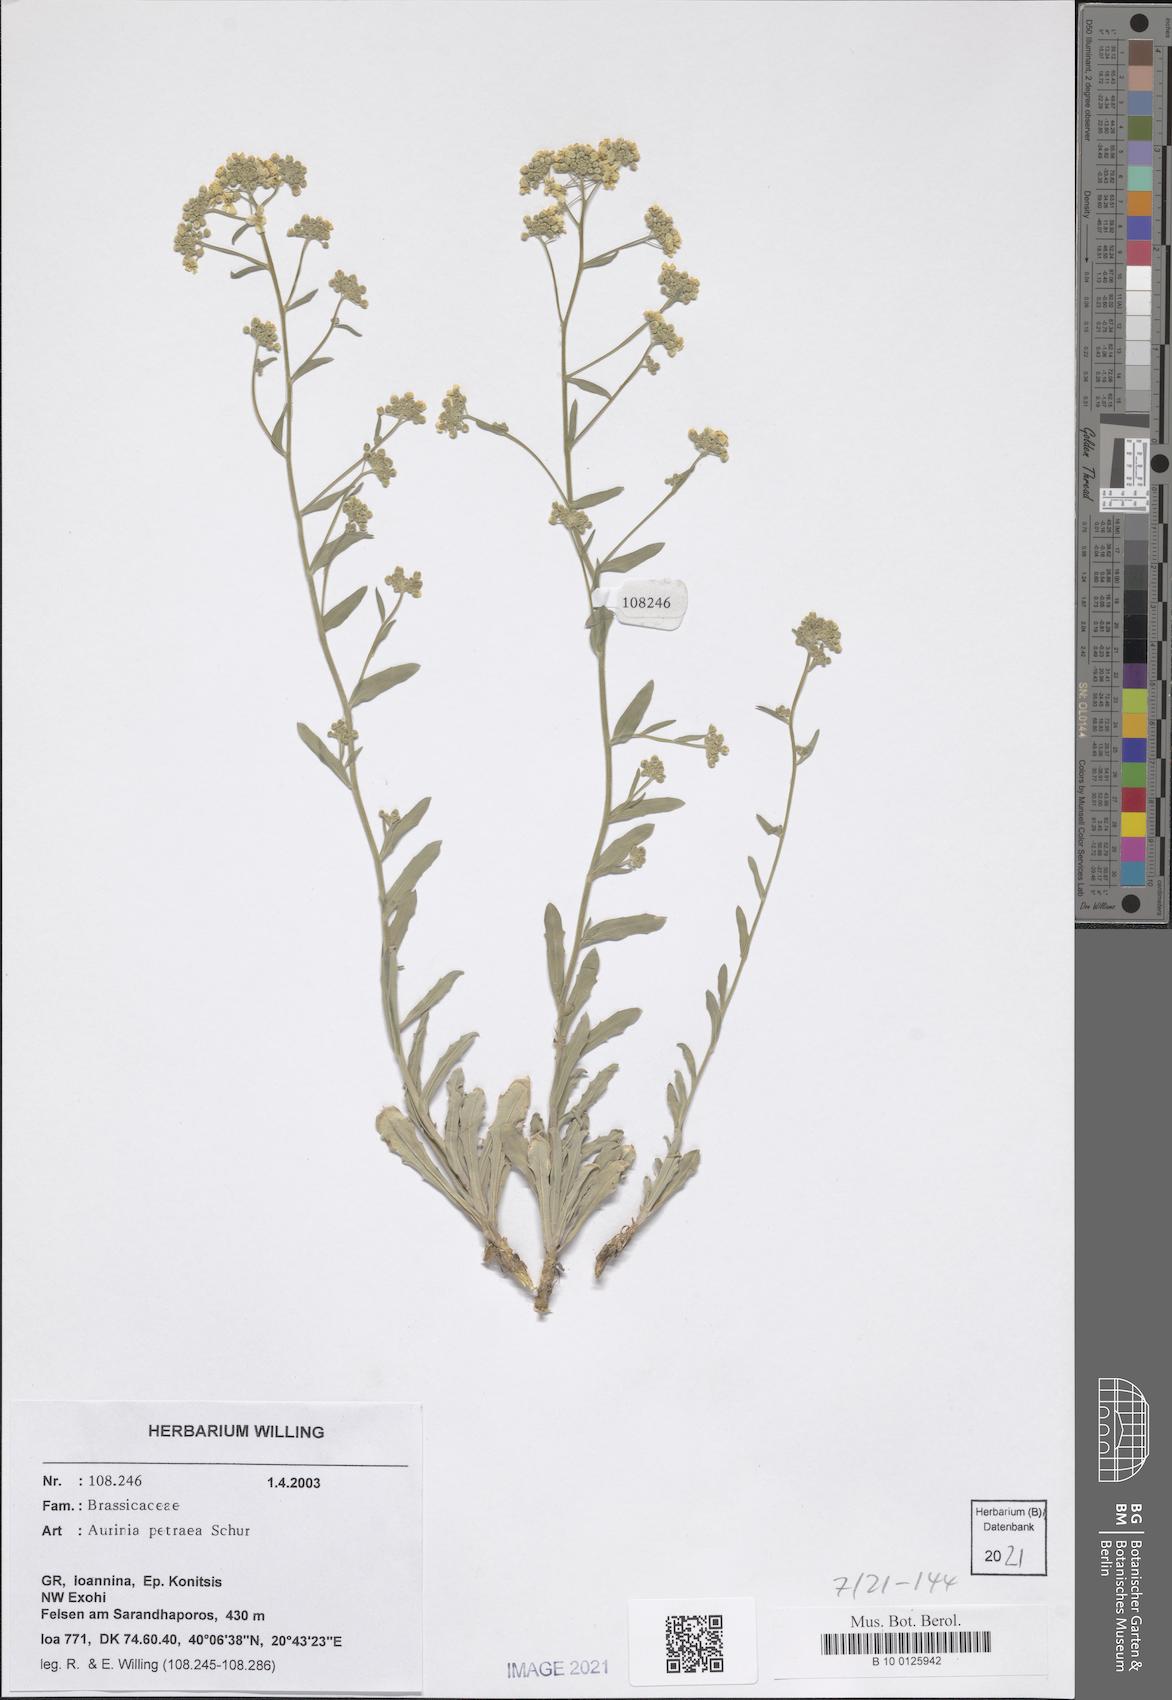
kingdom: Plantae
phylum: Tracheophyta
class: Magnoliopsida
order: Brassicales
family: Brassicaceae
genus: Aurinia
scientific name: Aurinia petraea
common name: Goldentuft
